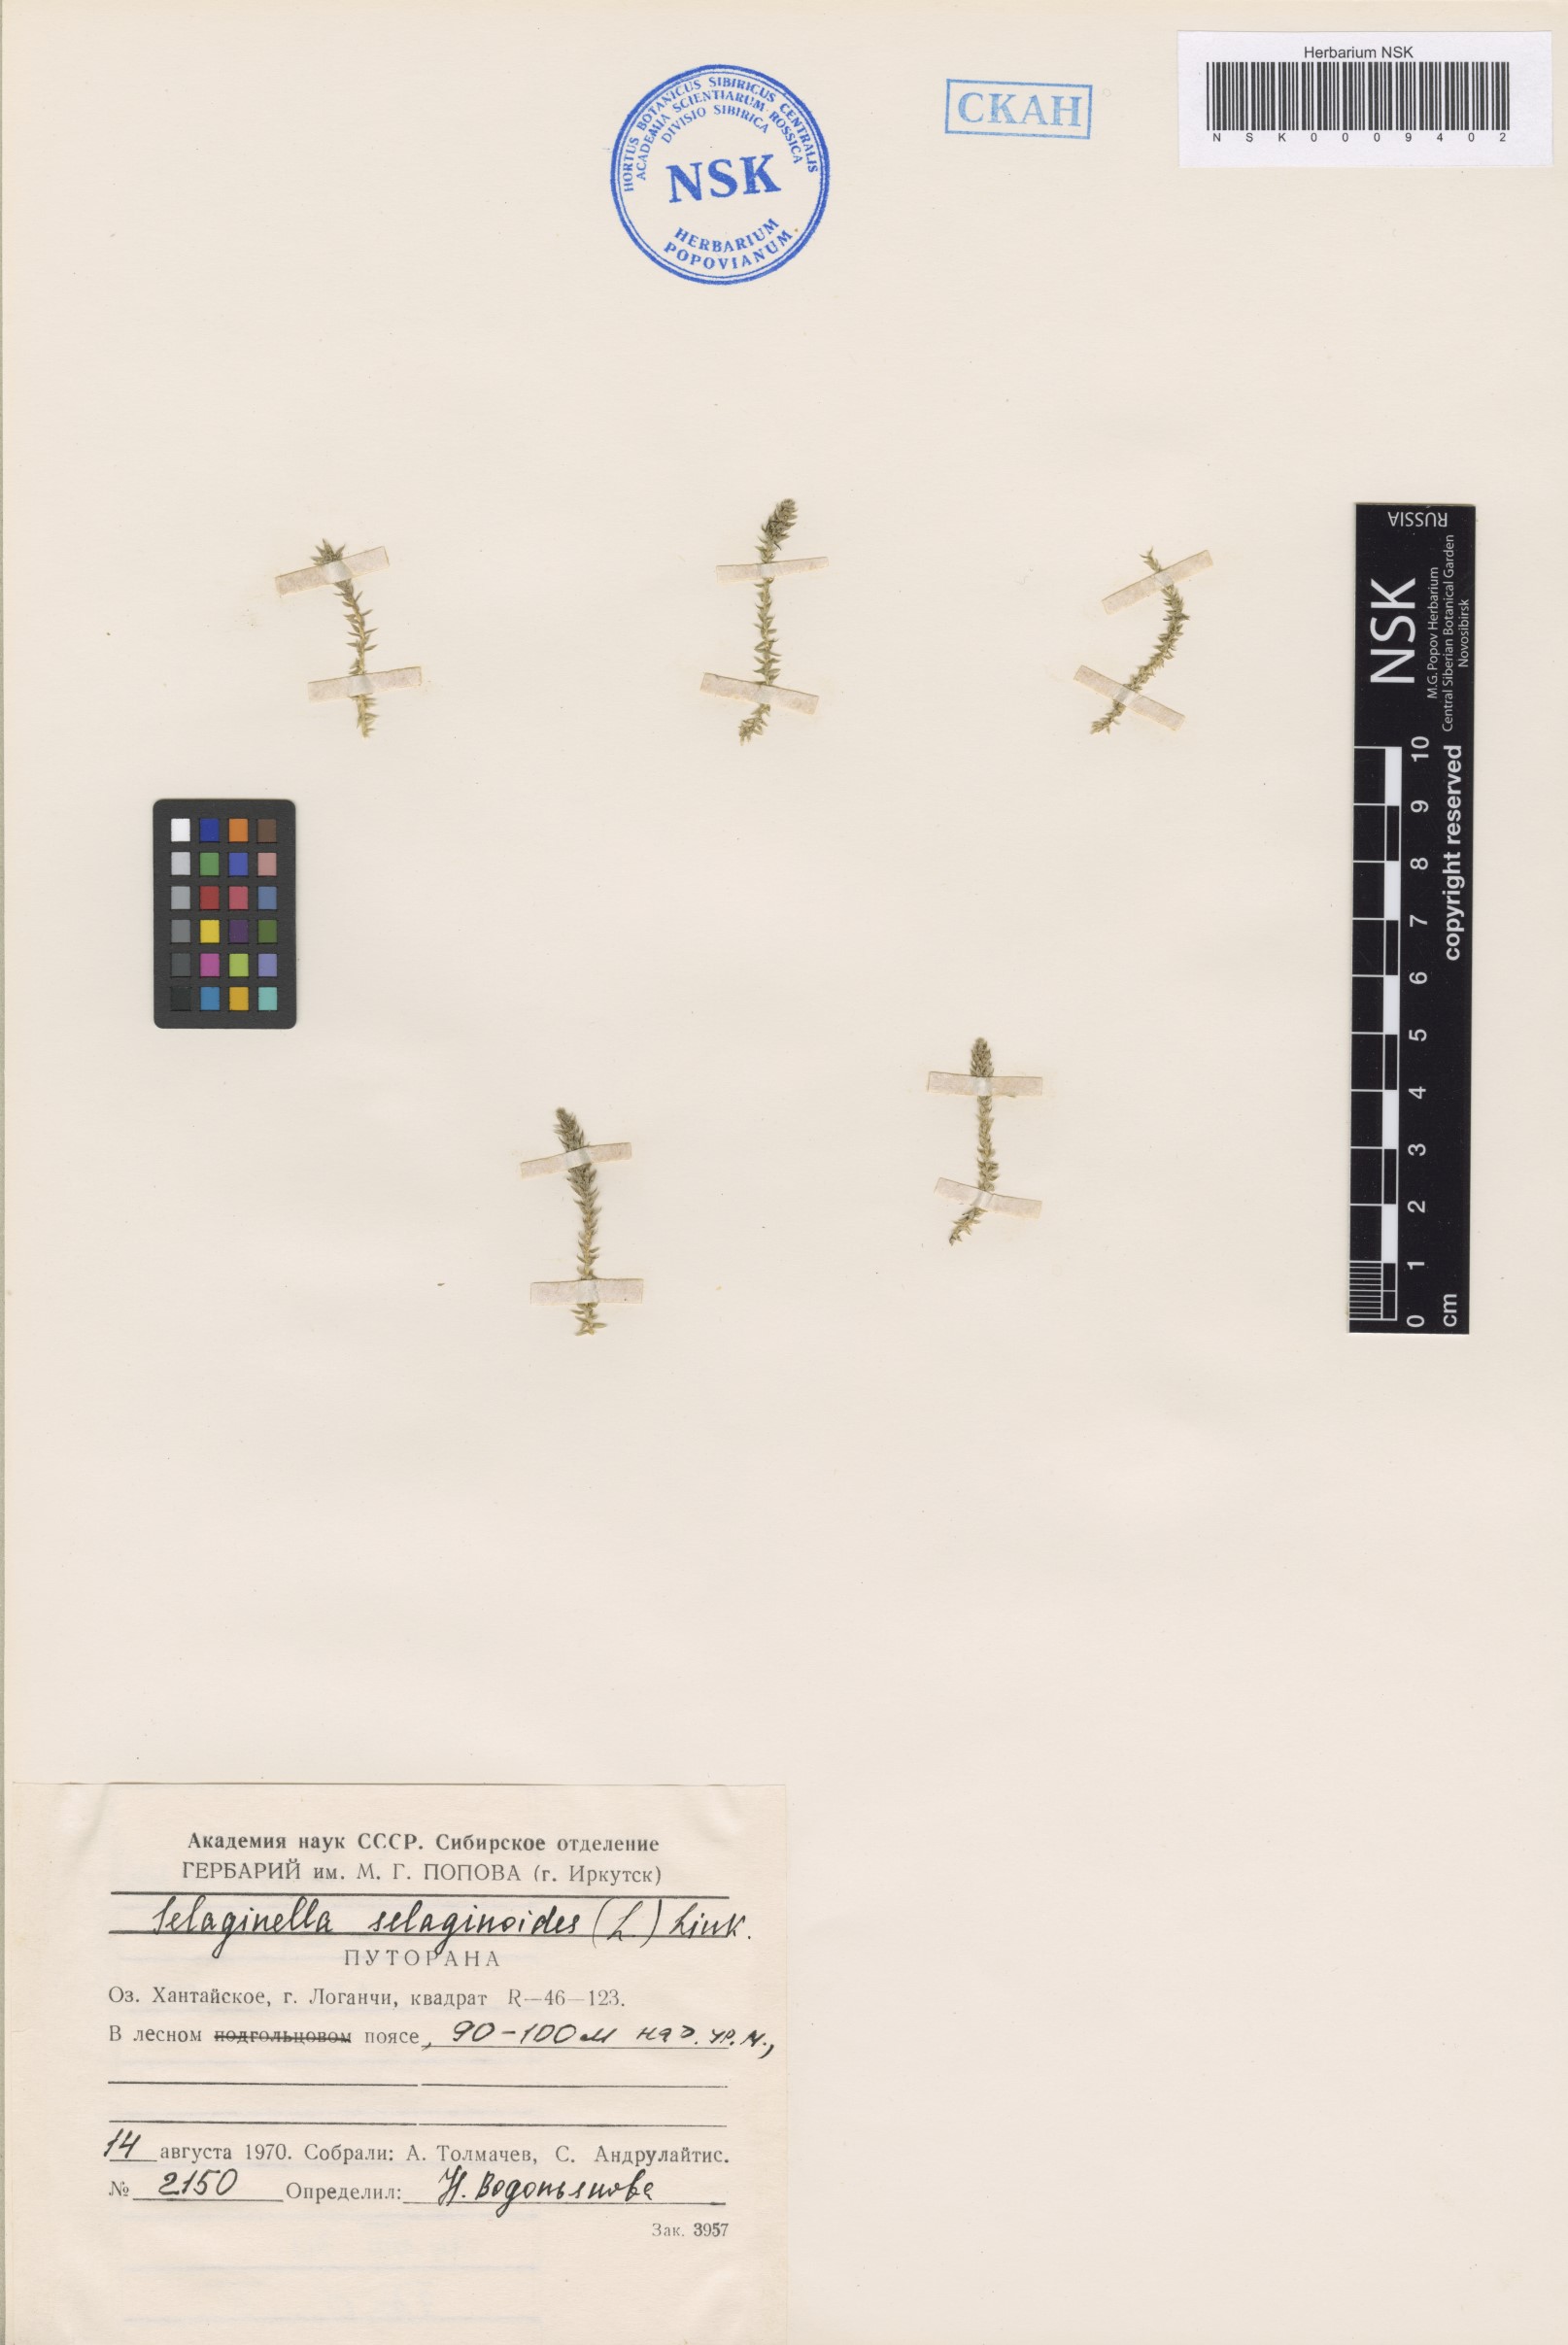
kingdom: Plantae
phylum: Tracheophyta
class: Lycopodiopsida
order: Selaginellales
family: Selaginellaceae
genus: Selaginella
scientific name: Selaginella selaginoides
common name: Prickly mountain-moss
